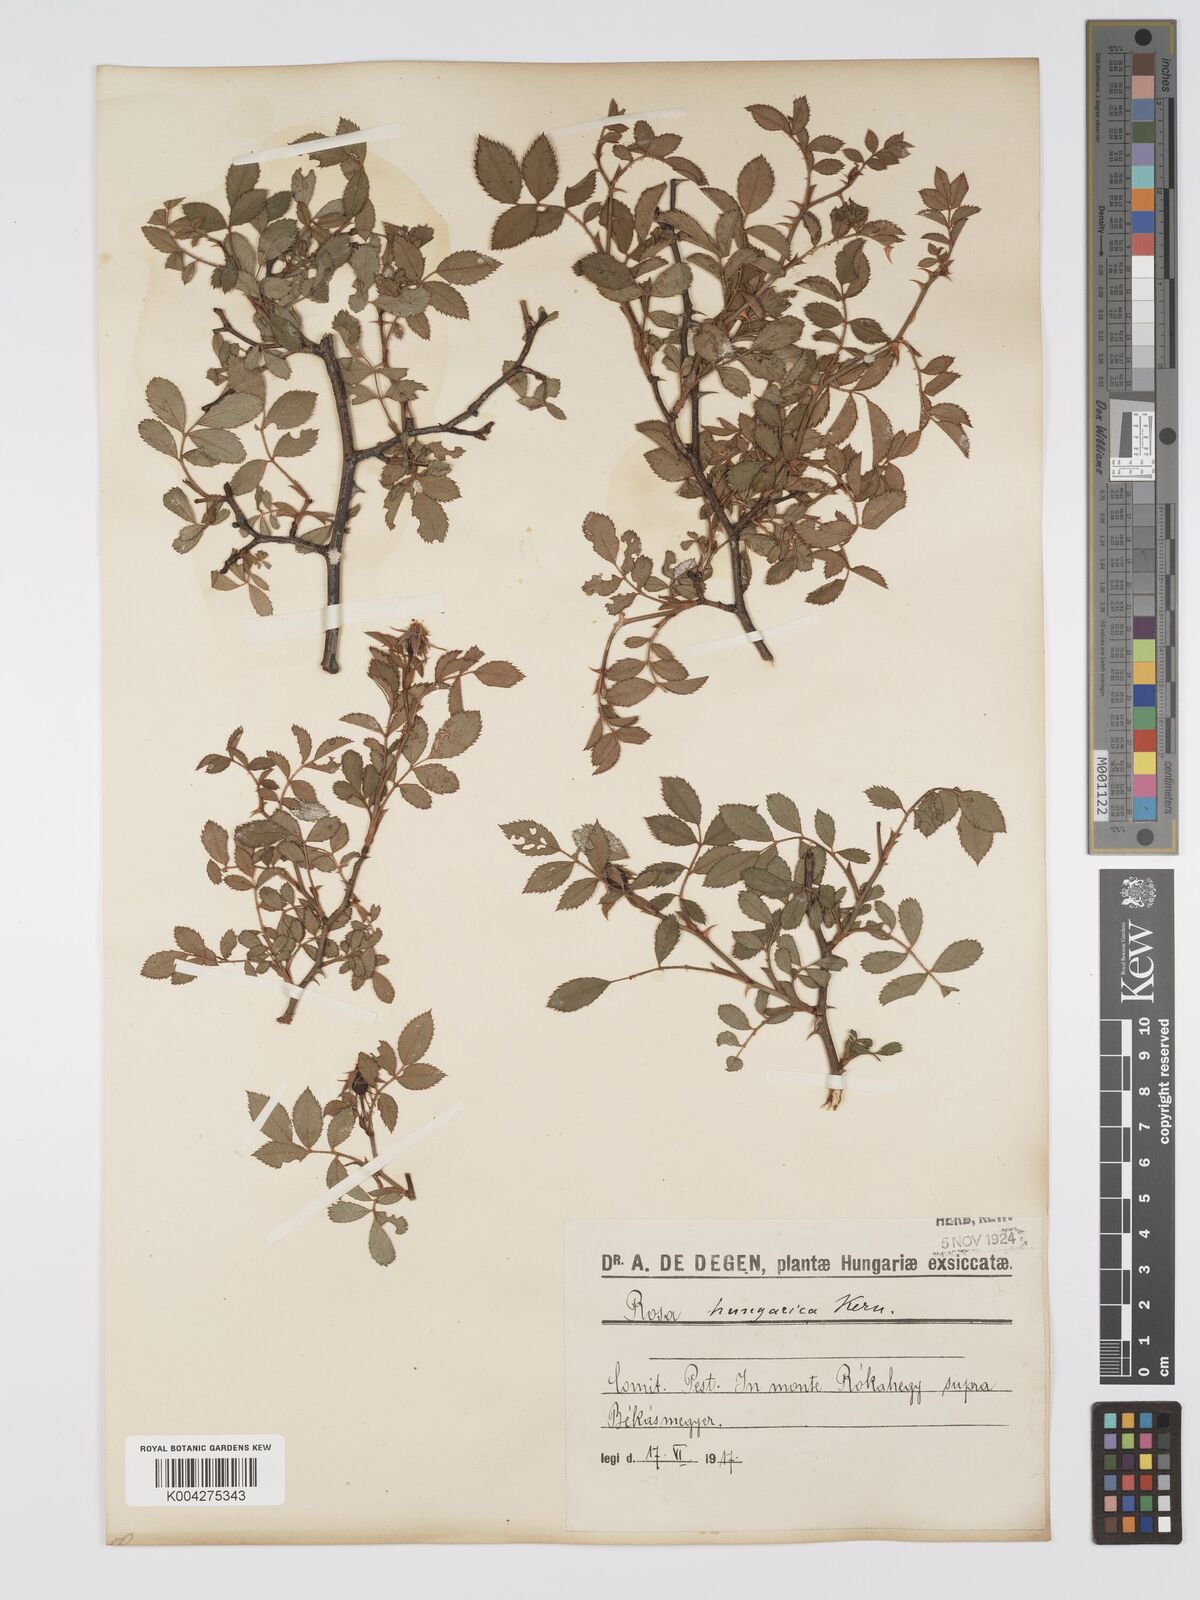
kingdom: Plantae
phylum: Tracheophyta
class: Magnoliopsida
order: Rosales
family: Rosaceae
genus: Rosa
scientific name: Rosa
